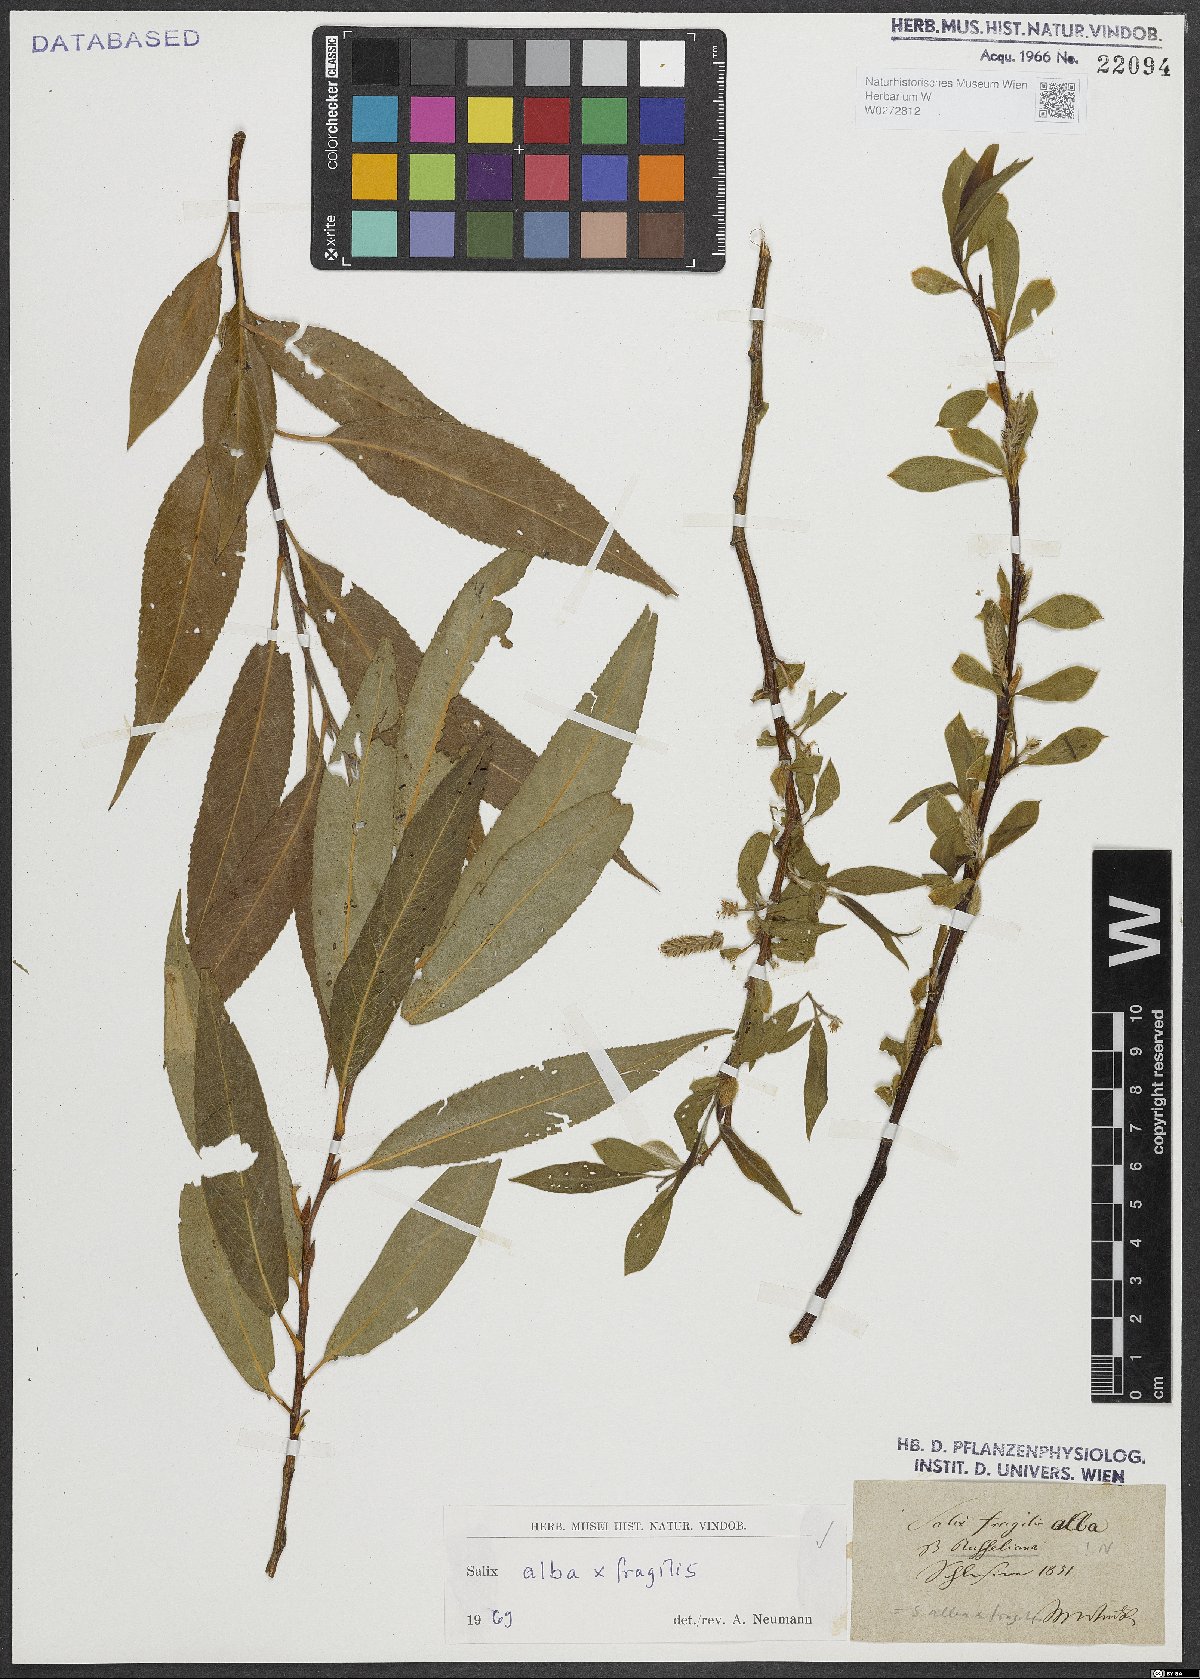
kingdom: Plantae
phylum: Tracheophyta
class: Magnoliopsida
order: Malpighiales
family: Salicaceae
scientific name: Salicaceae
